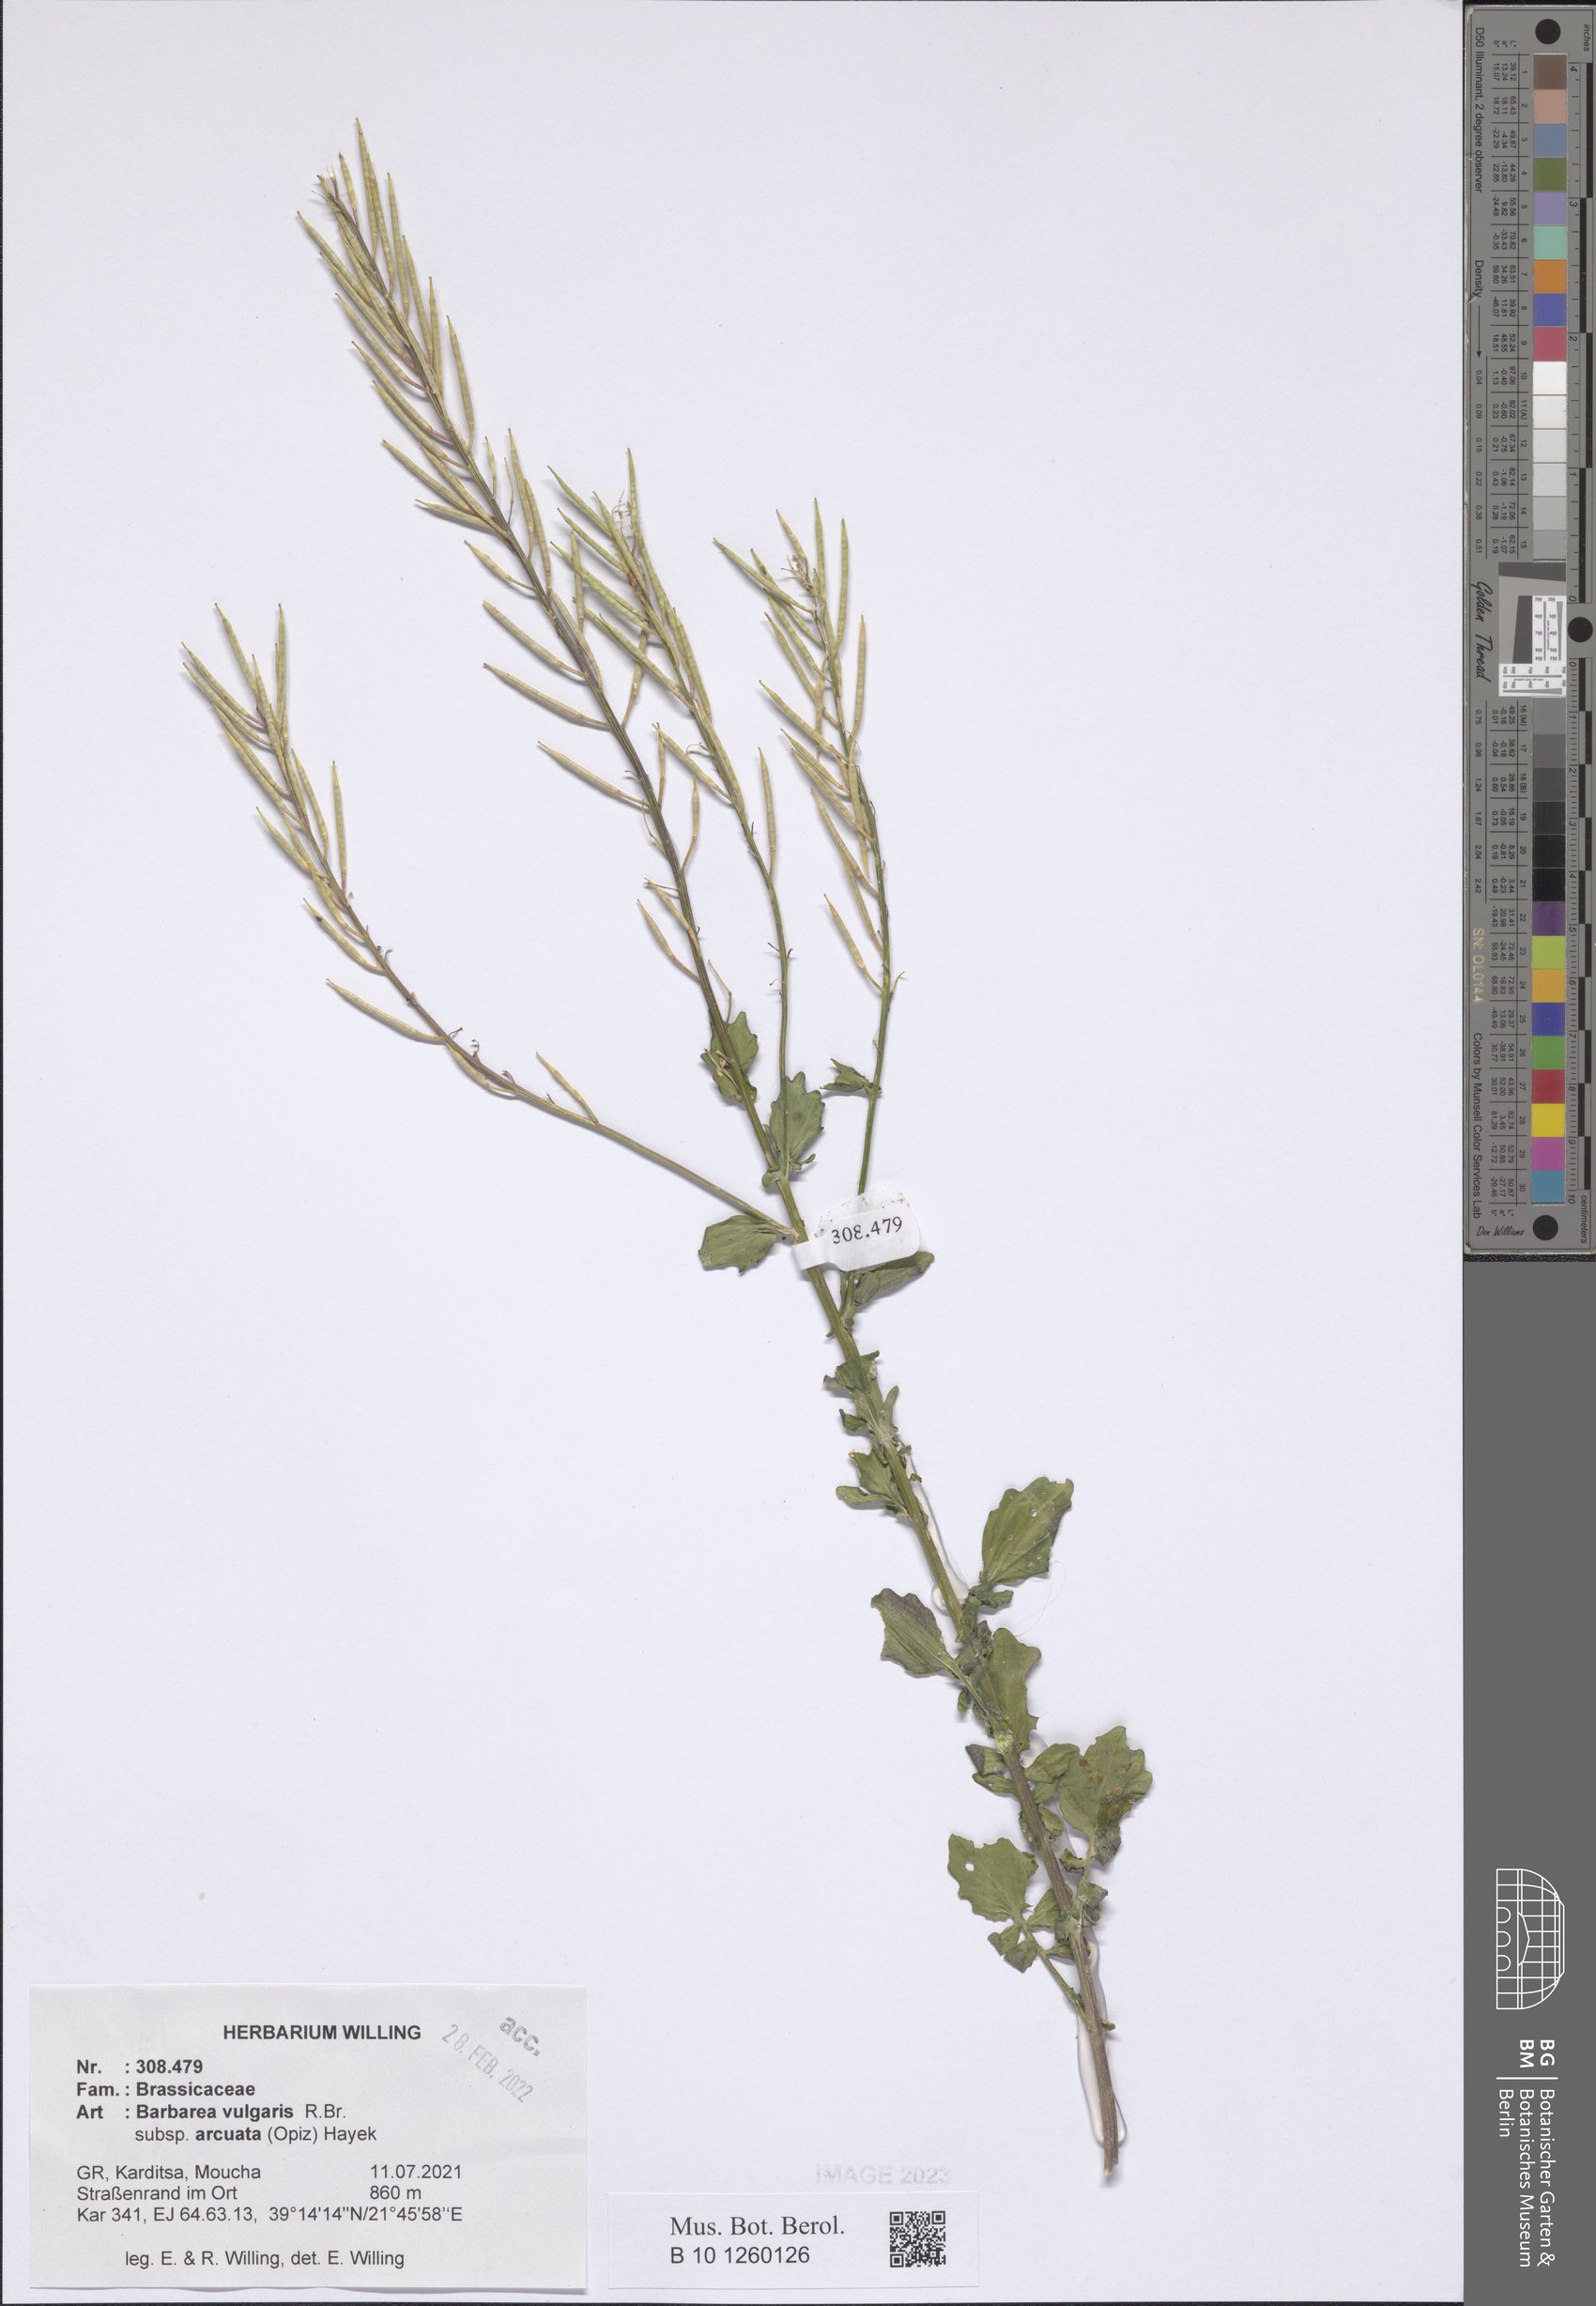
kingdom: Plantae
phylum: Tracheophyta
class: Magnoliopsida
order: Brassicales
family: Brassicaceae
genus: Barbarea
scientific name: Barbarea vulgaris
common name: Cressy-greens
